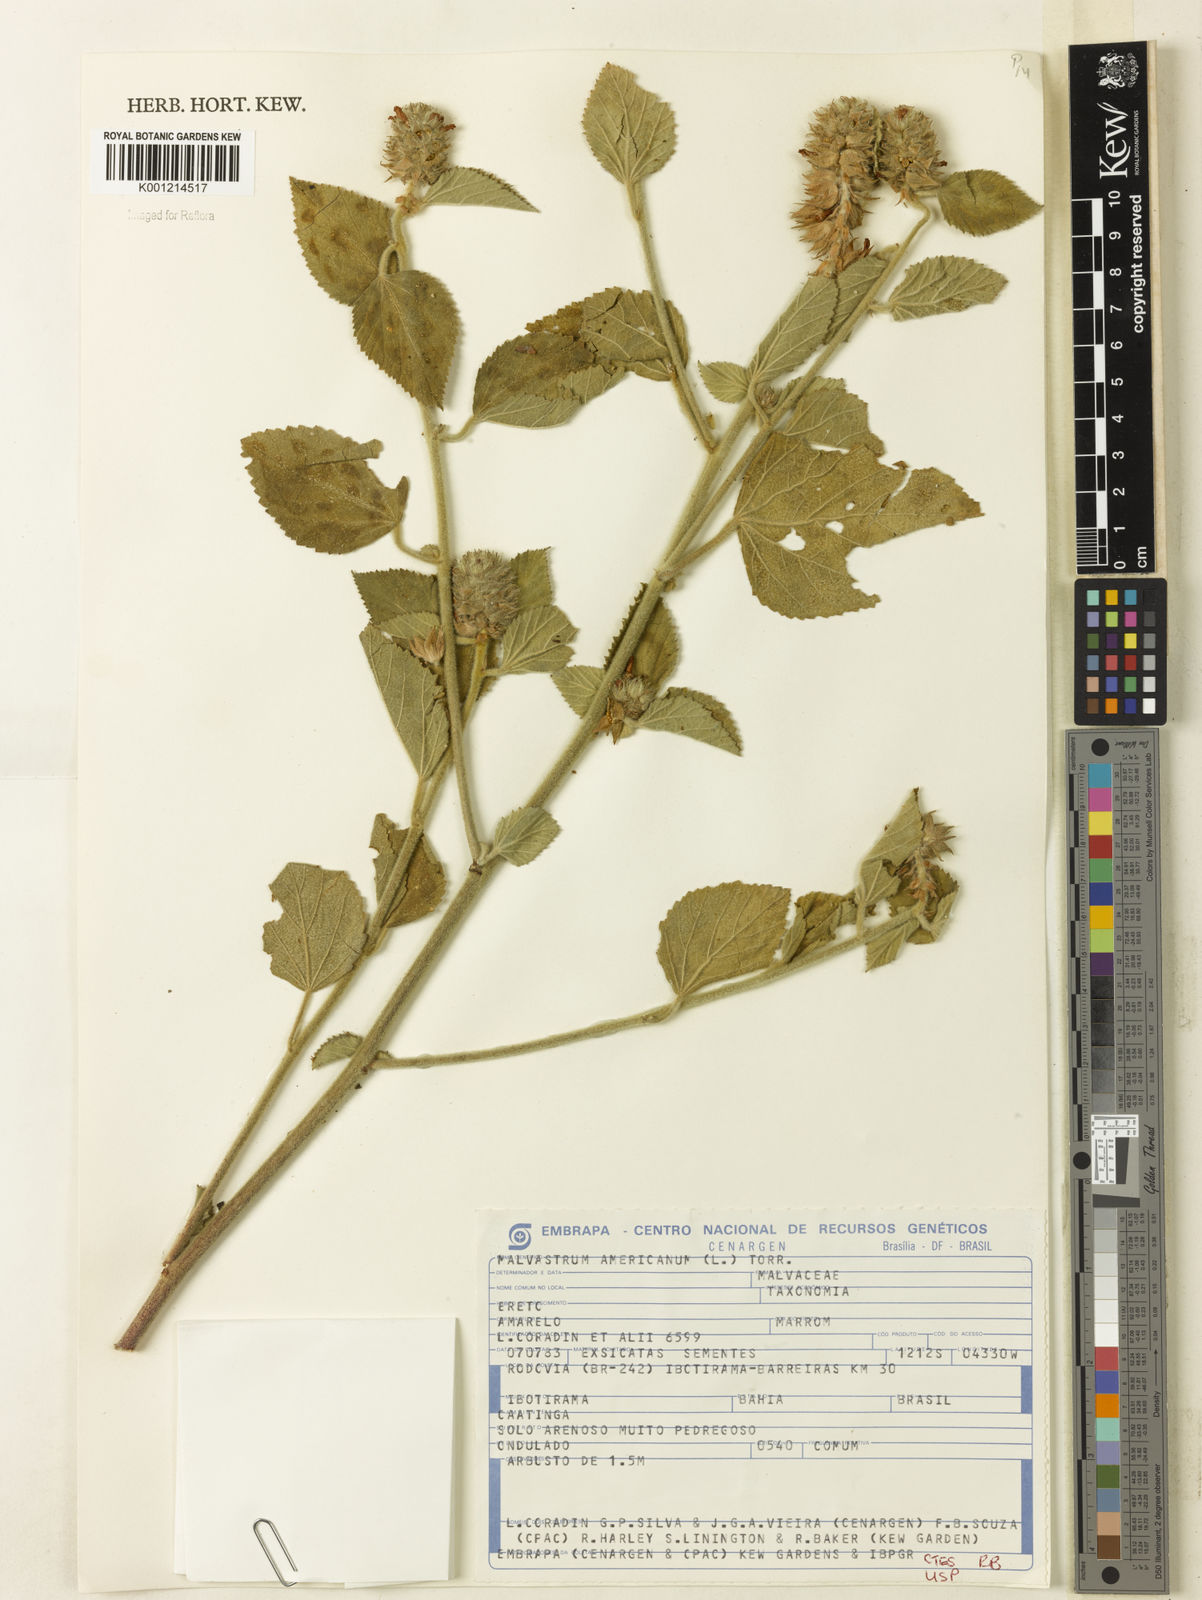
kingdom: Plantae
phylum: Tracheophyta
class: Magnoliopsida
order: Malvales
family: Malvaceae
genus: Malvastrum
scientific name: Malvastrum americanum
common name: Spiked malvastrum
